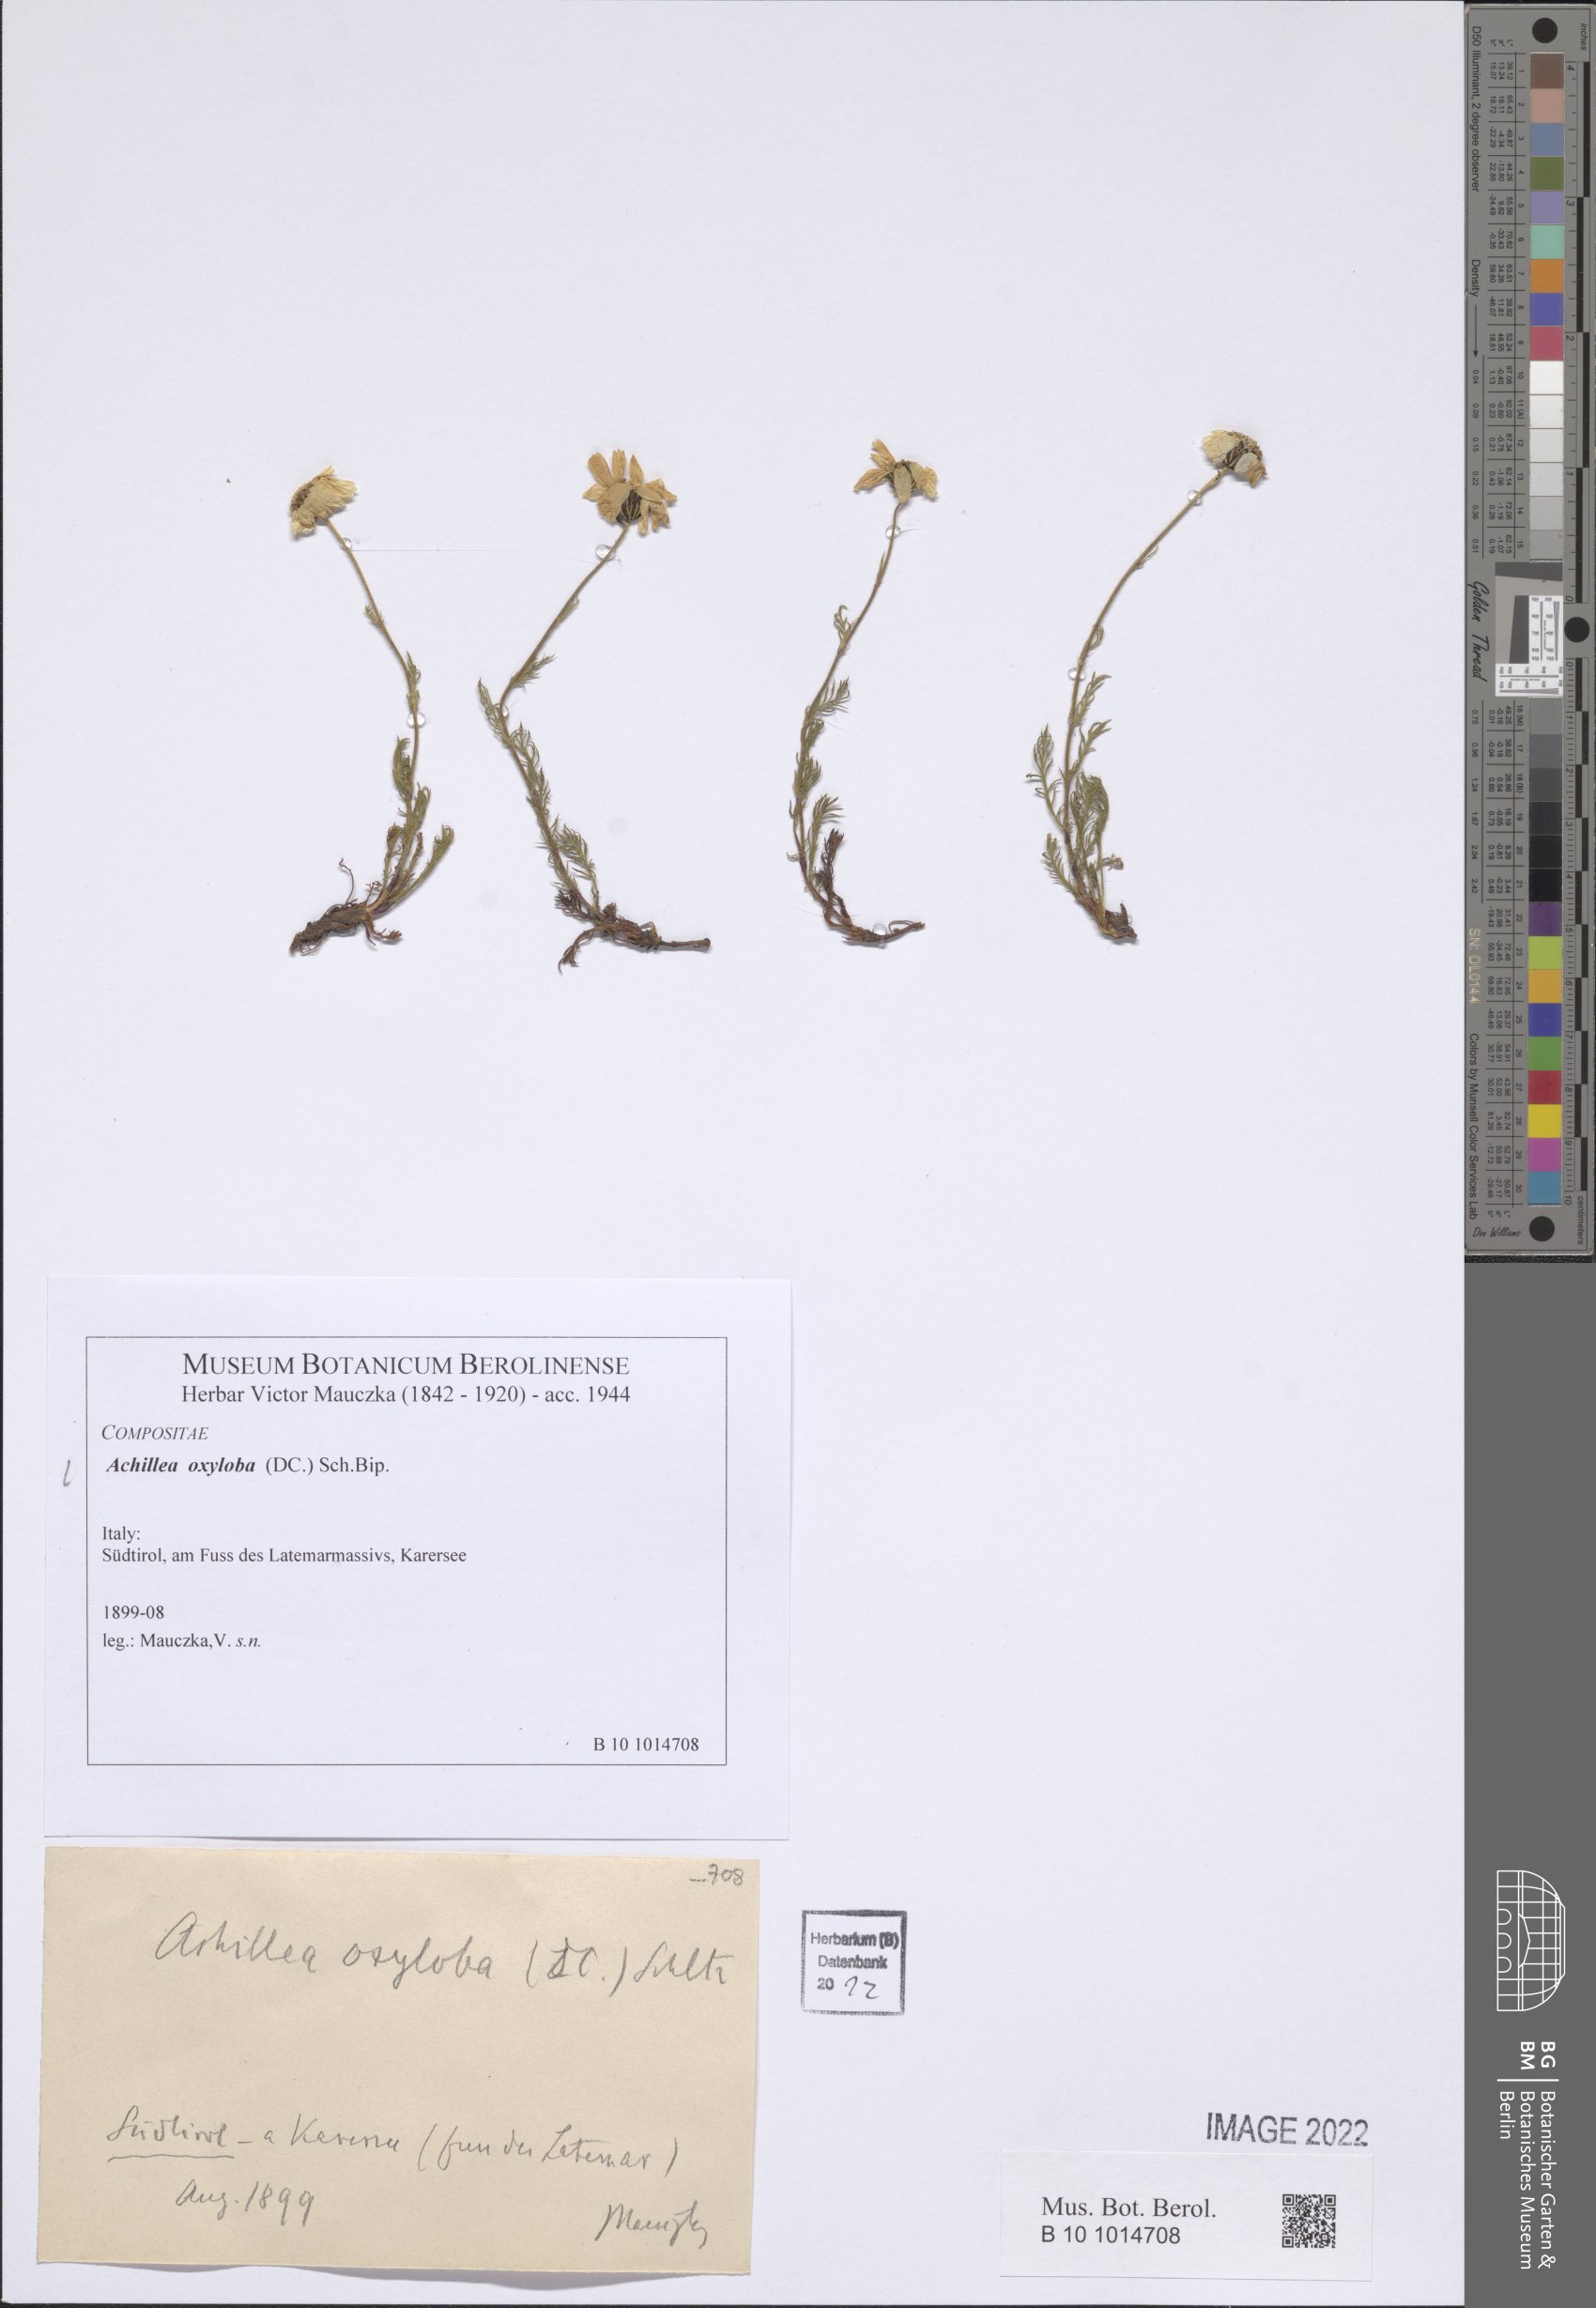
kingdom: Plantae
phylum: Tracheophyta
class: Magnoliopsida
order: Asterales
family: Asteraceae
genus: Achillea
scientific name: Achillea oxyloba
